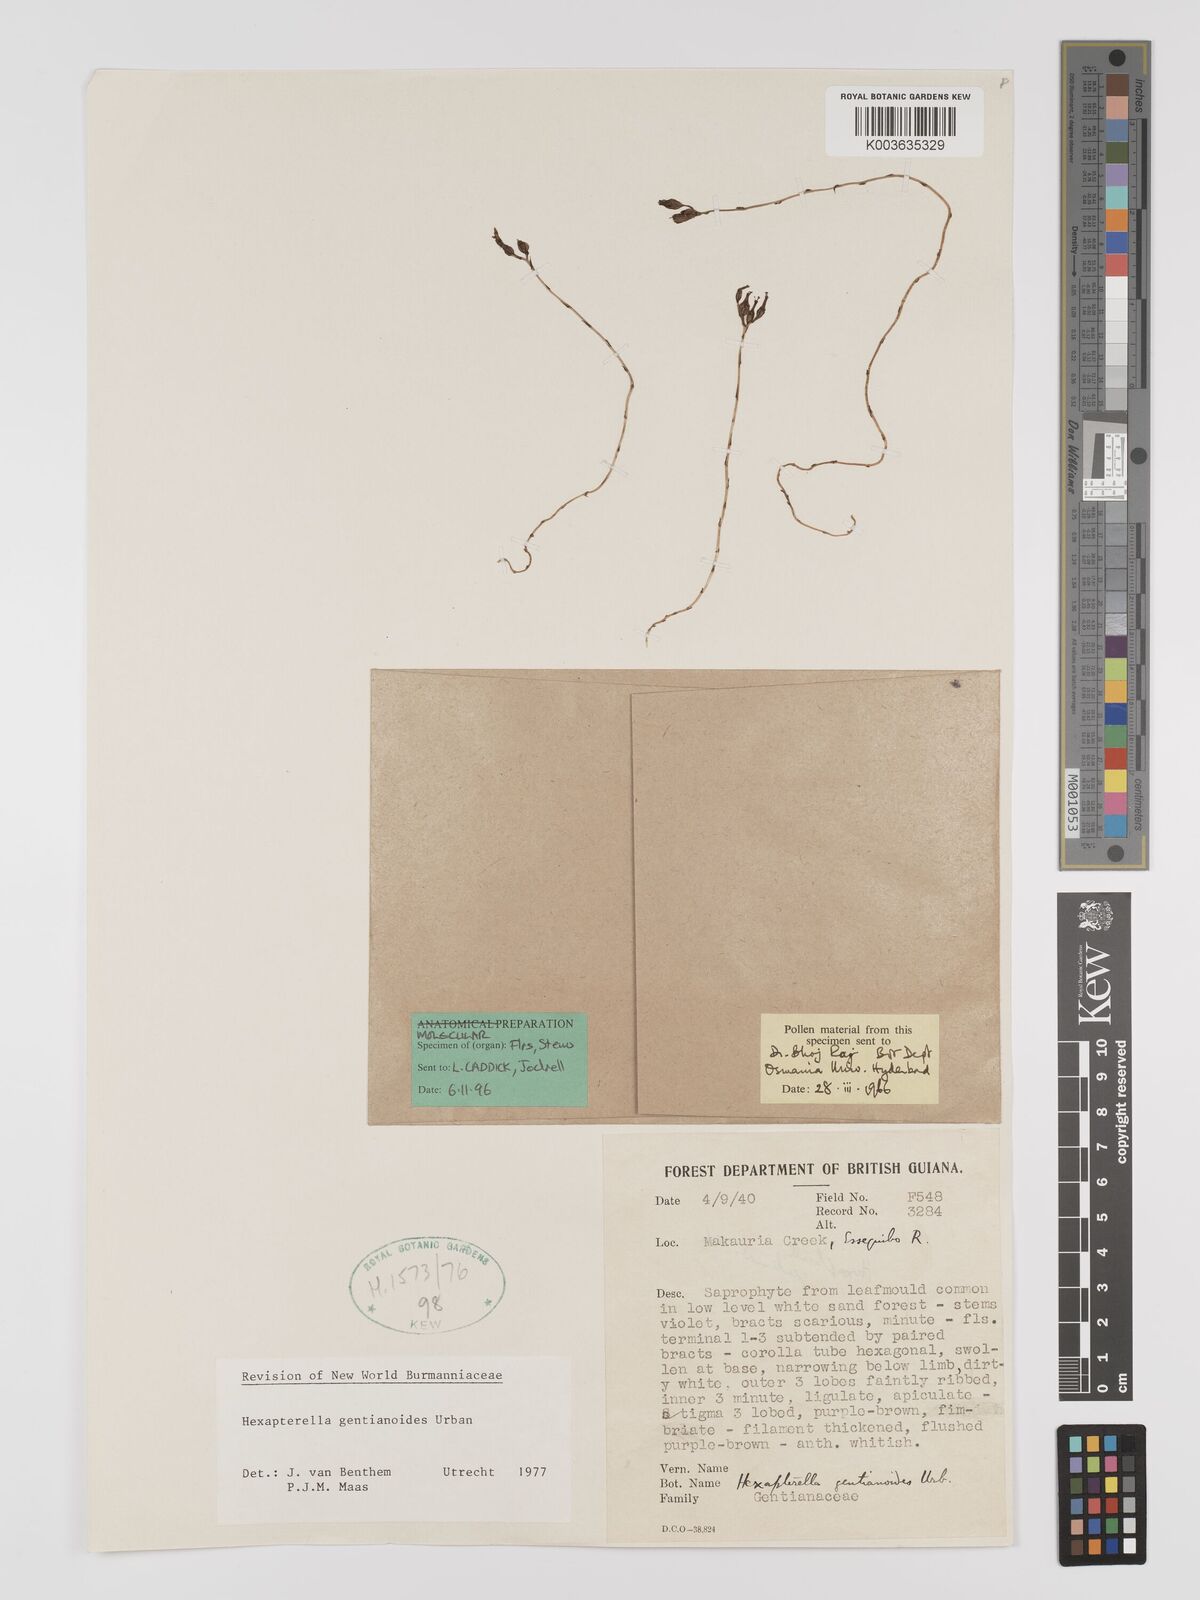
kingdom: Plantae
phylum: Tracheophyta
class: Liliopsida
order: Dioscoreales
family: Burmanniaceae
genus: Hexapterella
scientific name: Hexapterella gentianoides
